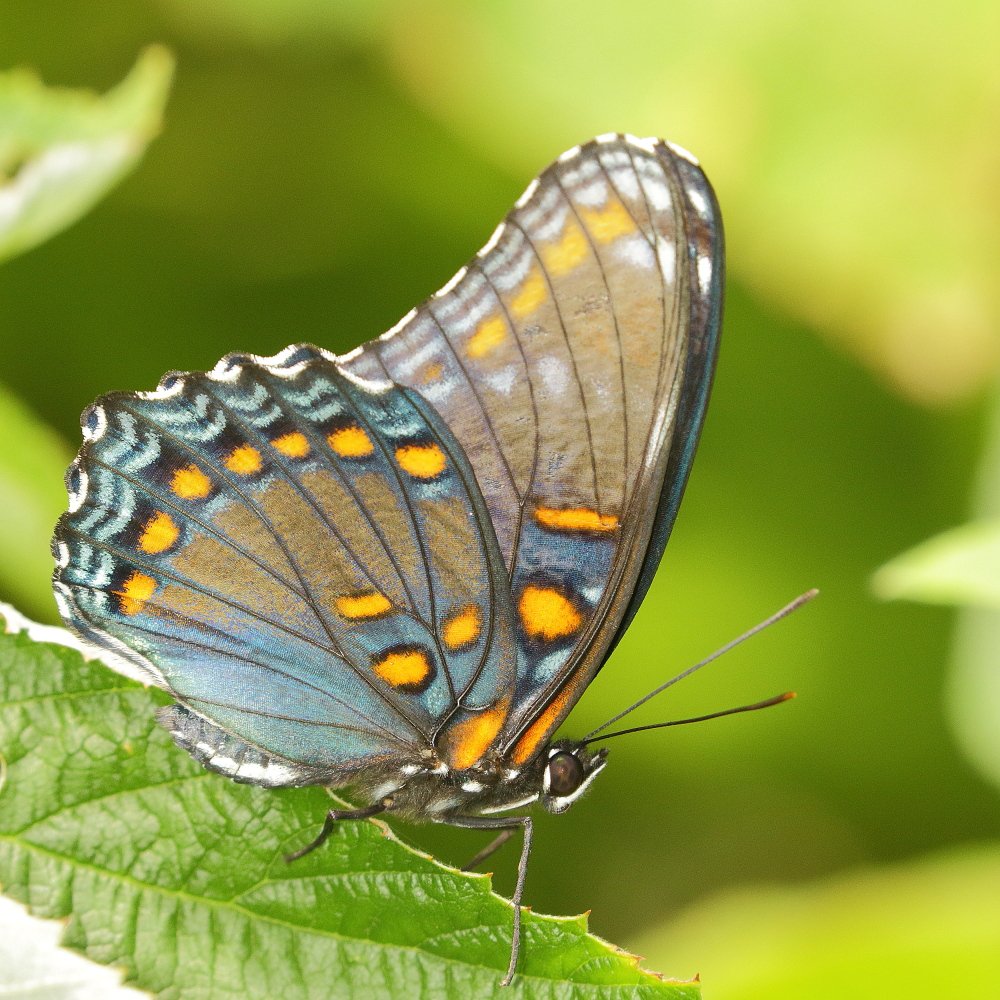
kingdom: Animalia
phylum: Arthropoda
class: Insecta
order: Lepidoptera
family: Nymphalidae
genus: Limenitis
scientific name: Limenitis astyanax
